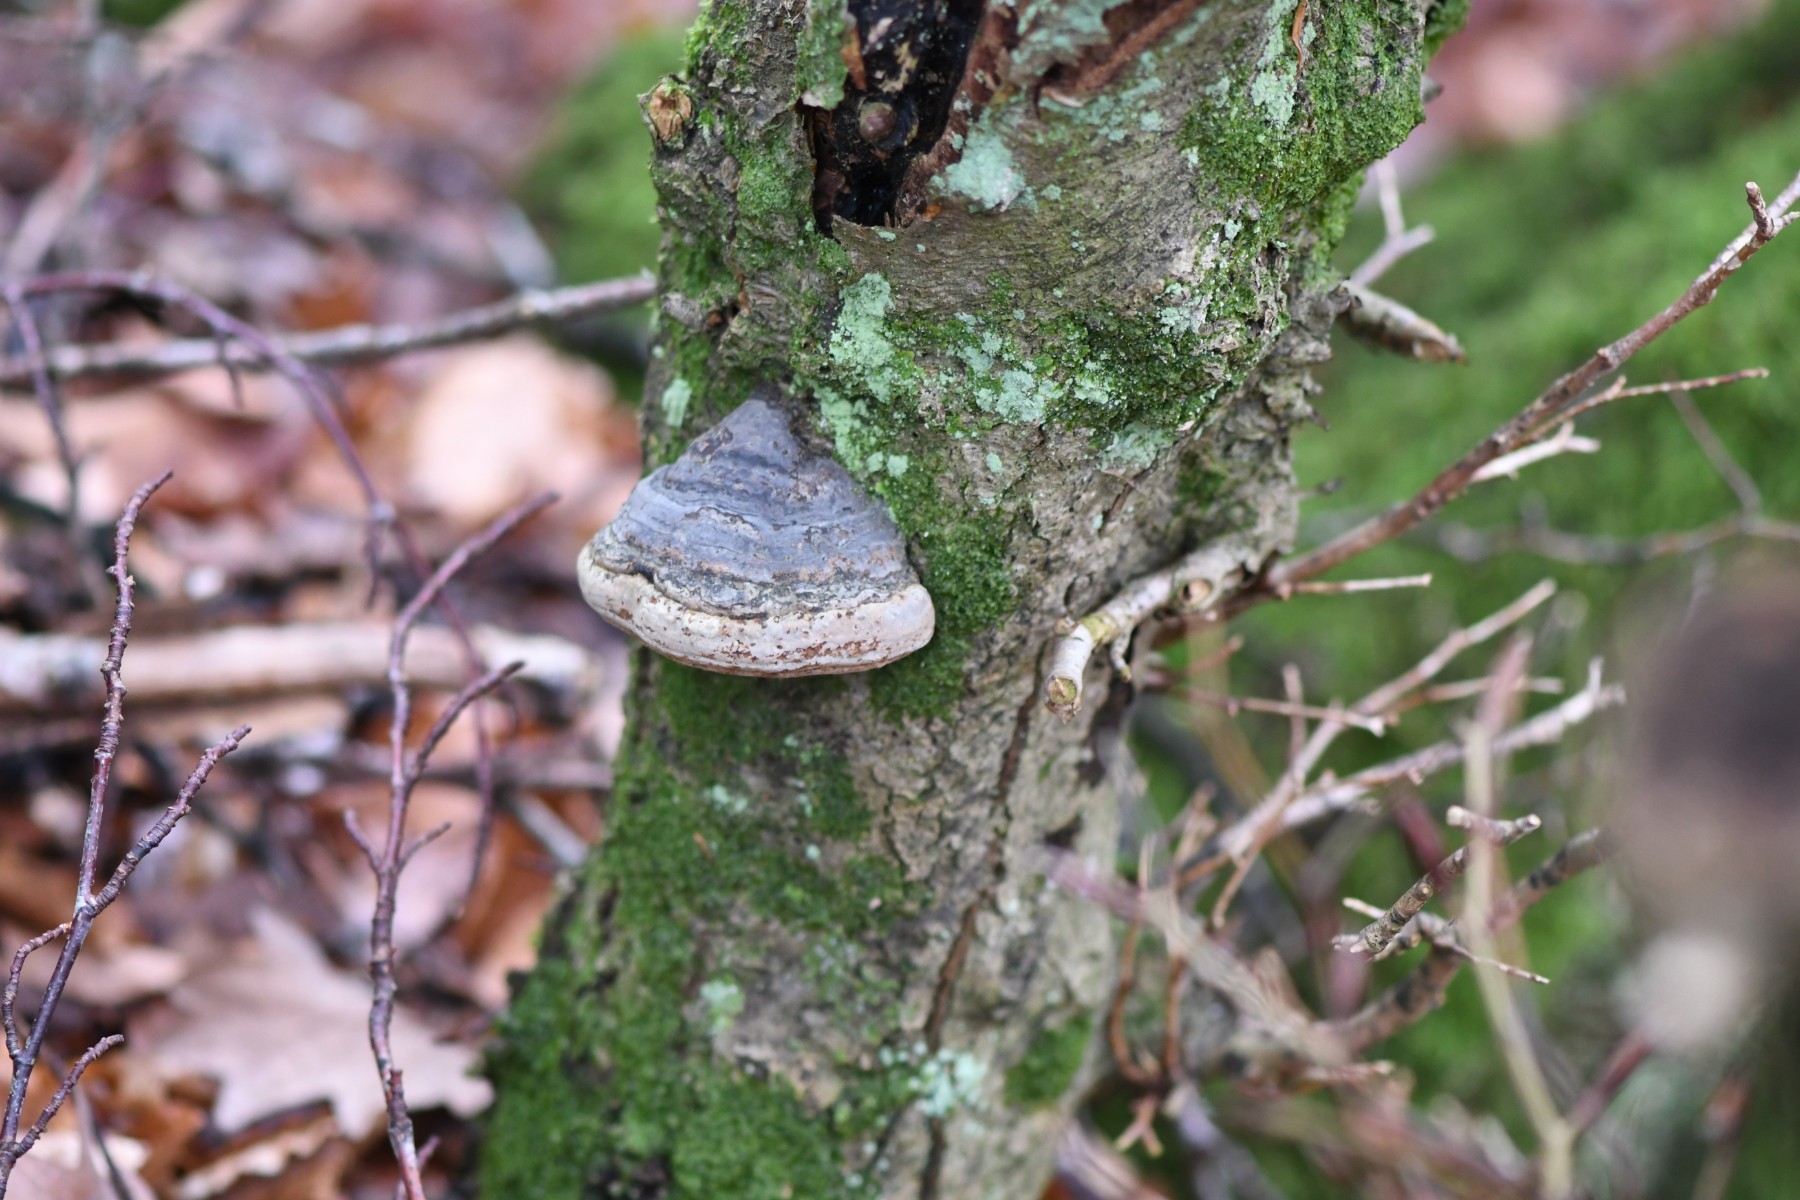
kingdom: Fungi
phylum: Basidiomycota
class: Agaricomycetes
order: Polyporales
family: Polyporaceae
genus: Fomes
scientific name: Fomes fomentarius
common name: tøndersvamp
